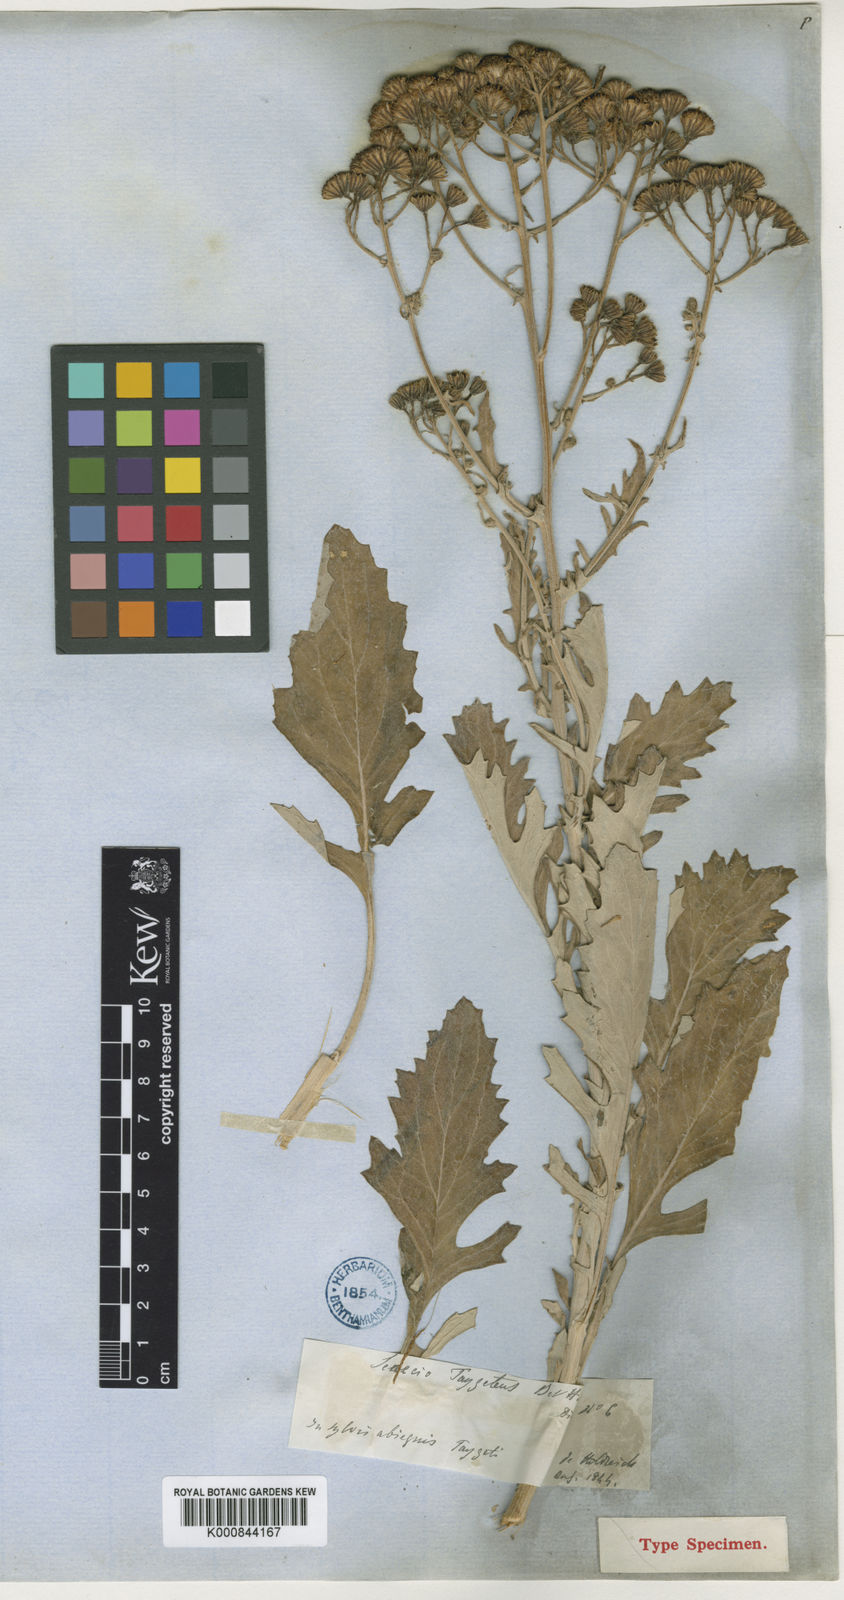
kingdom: Plantae
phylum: Tracheophyta
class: Magnoliopsida
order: Asterales
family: Asteraceae
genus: Jacobaea
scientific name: Jacobaea ambigua
